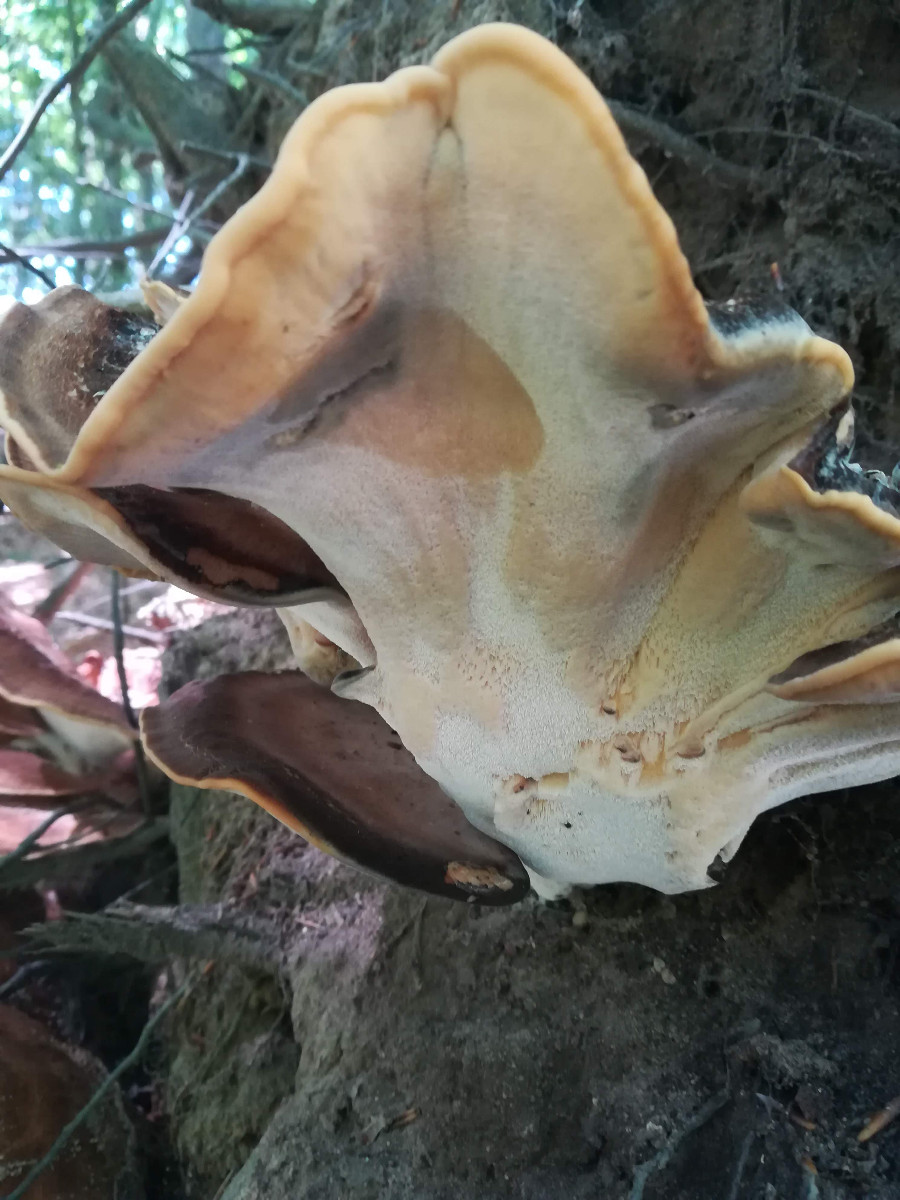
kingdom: Fungi
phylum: Basidiomycota
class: Agaricomycetes
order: Polyporales
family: Meripilaceae
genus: Meripilus
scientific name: Meripilus giganteus
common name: kæmpeporesvamp
